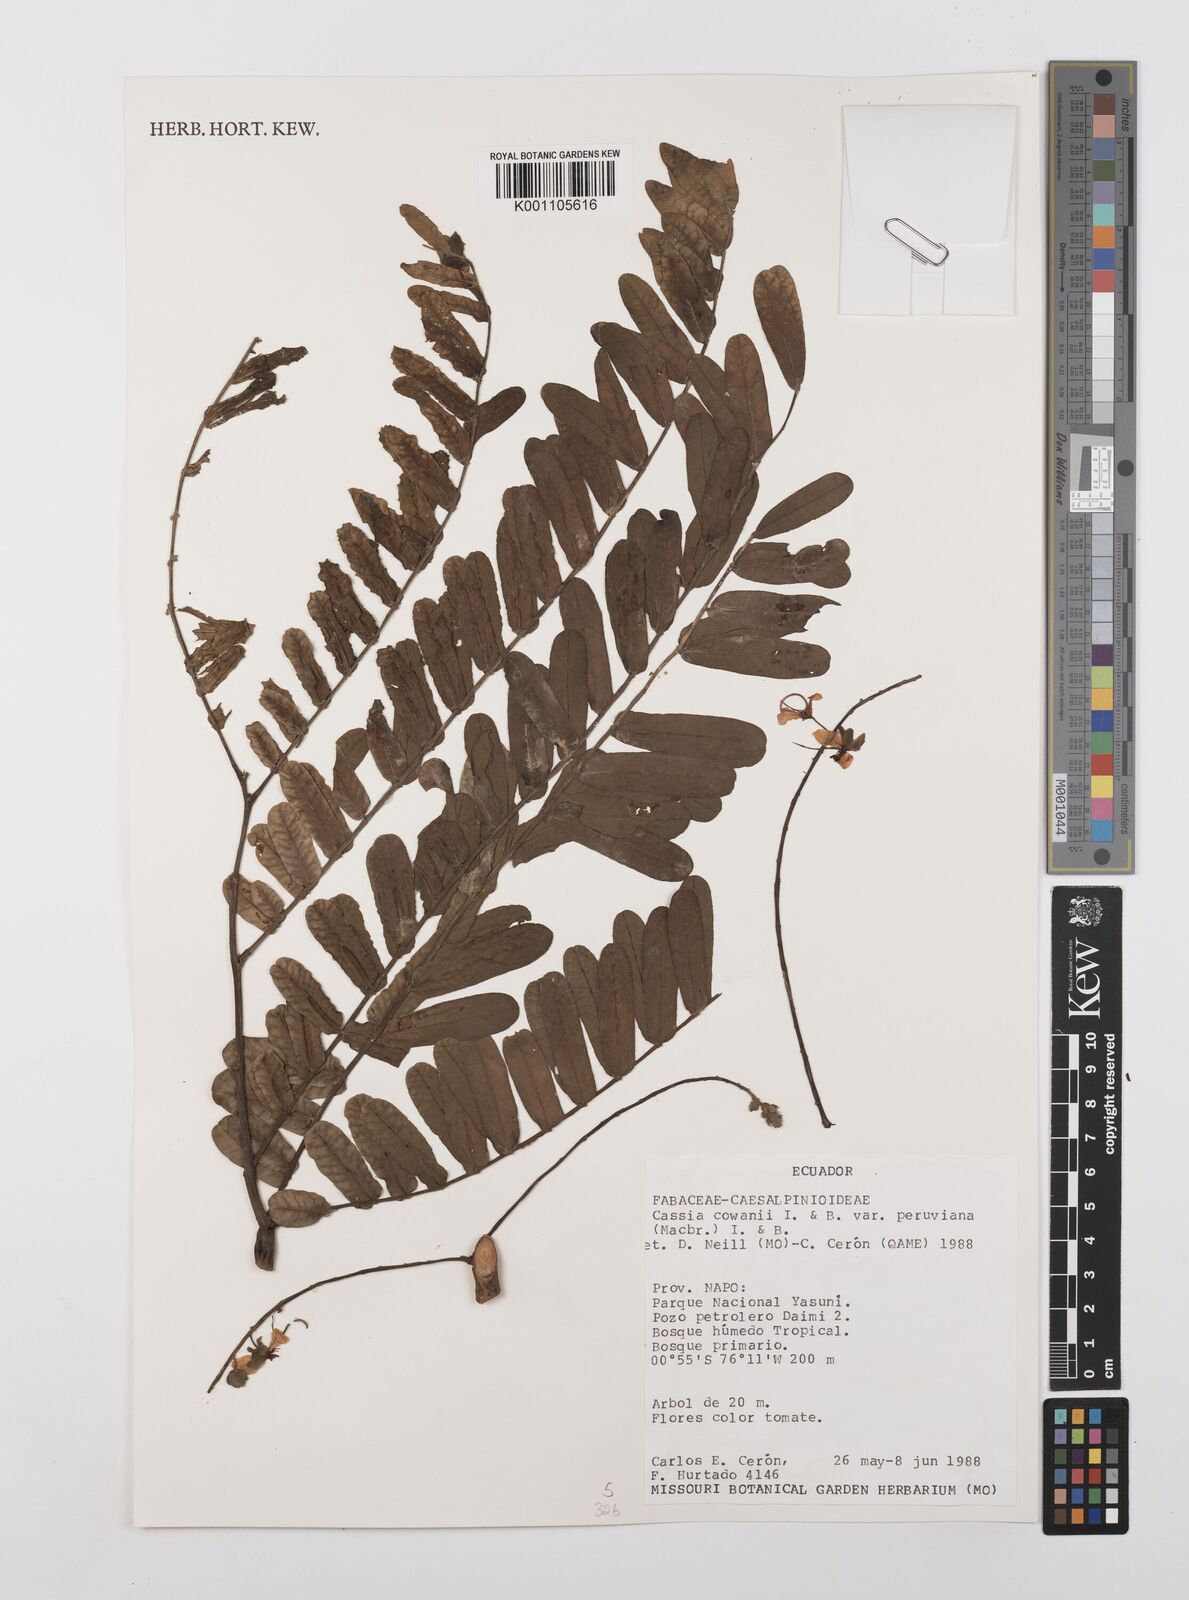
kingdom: Plantae
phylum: Tracheophyta
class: Magnoliopsida
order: Fabales
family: Fabaceae
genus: Cassia
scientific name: Cassia cowanii
